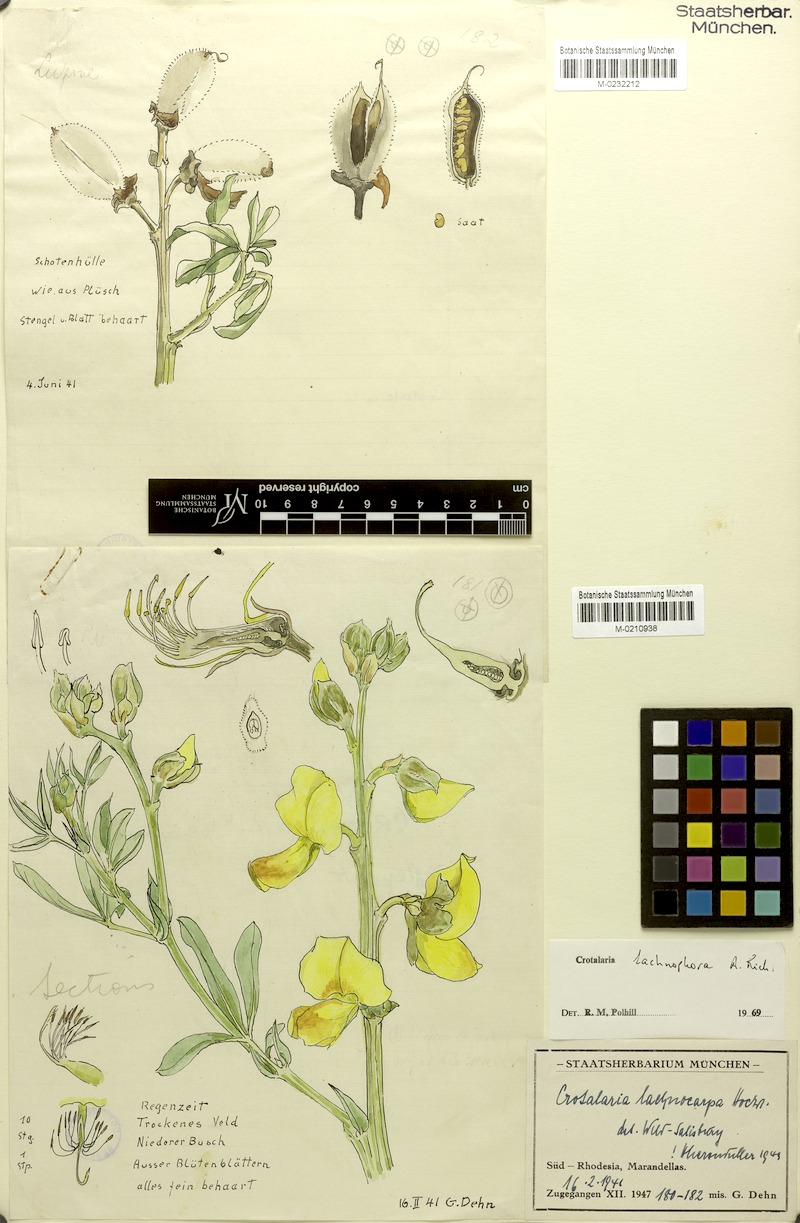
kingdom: Plantae
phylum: Tracheophyta
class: Magnoliopsida
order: Fabales
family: Fabaceae
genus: Crotalaria
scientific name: Crotalaria lachnophora
